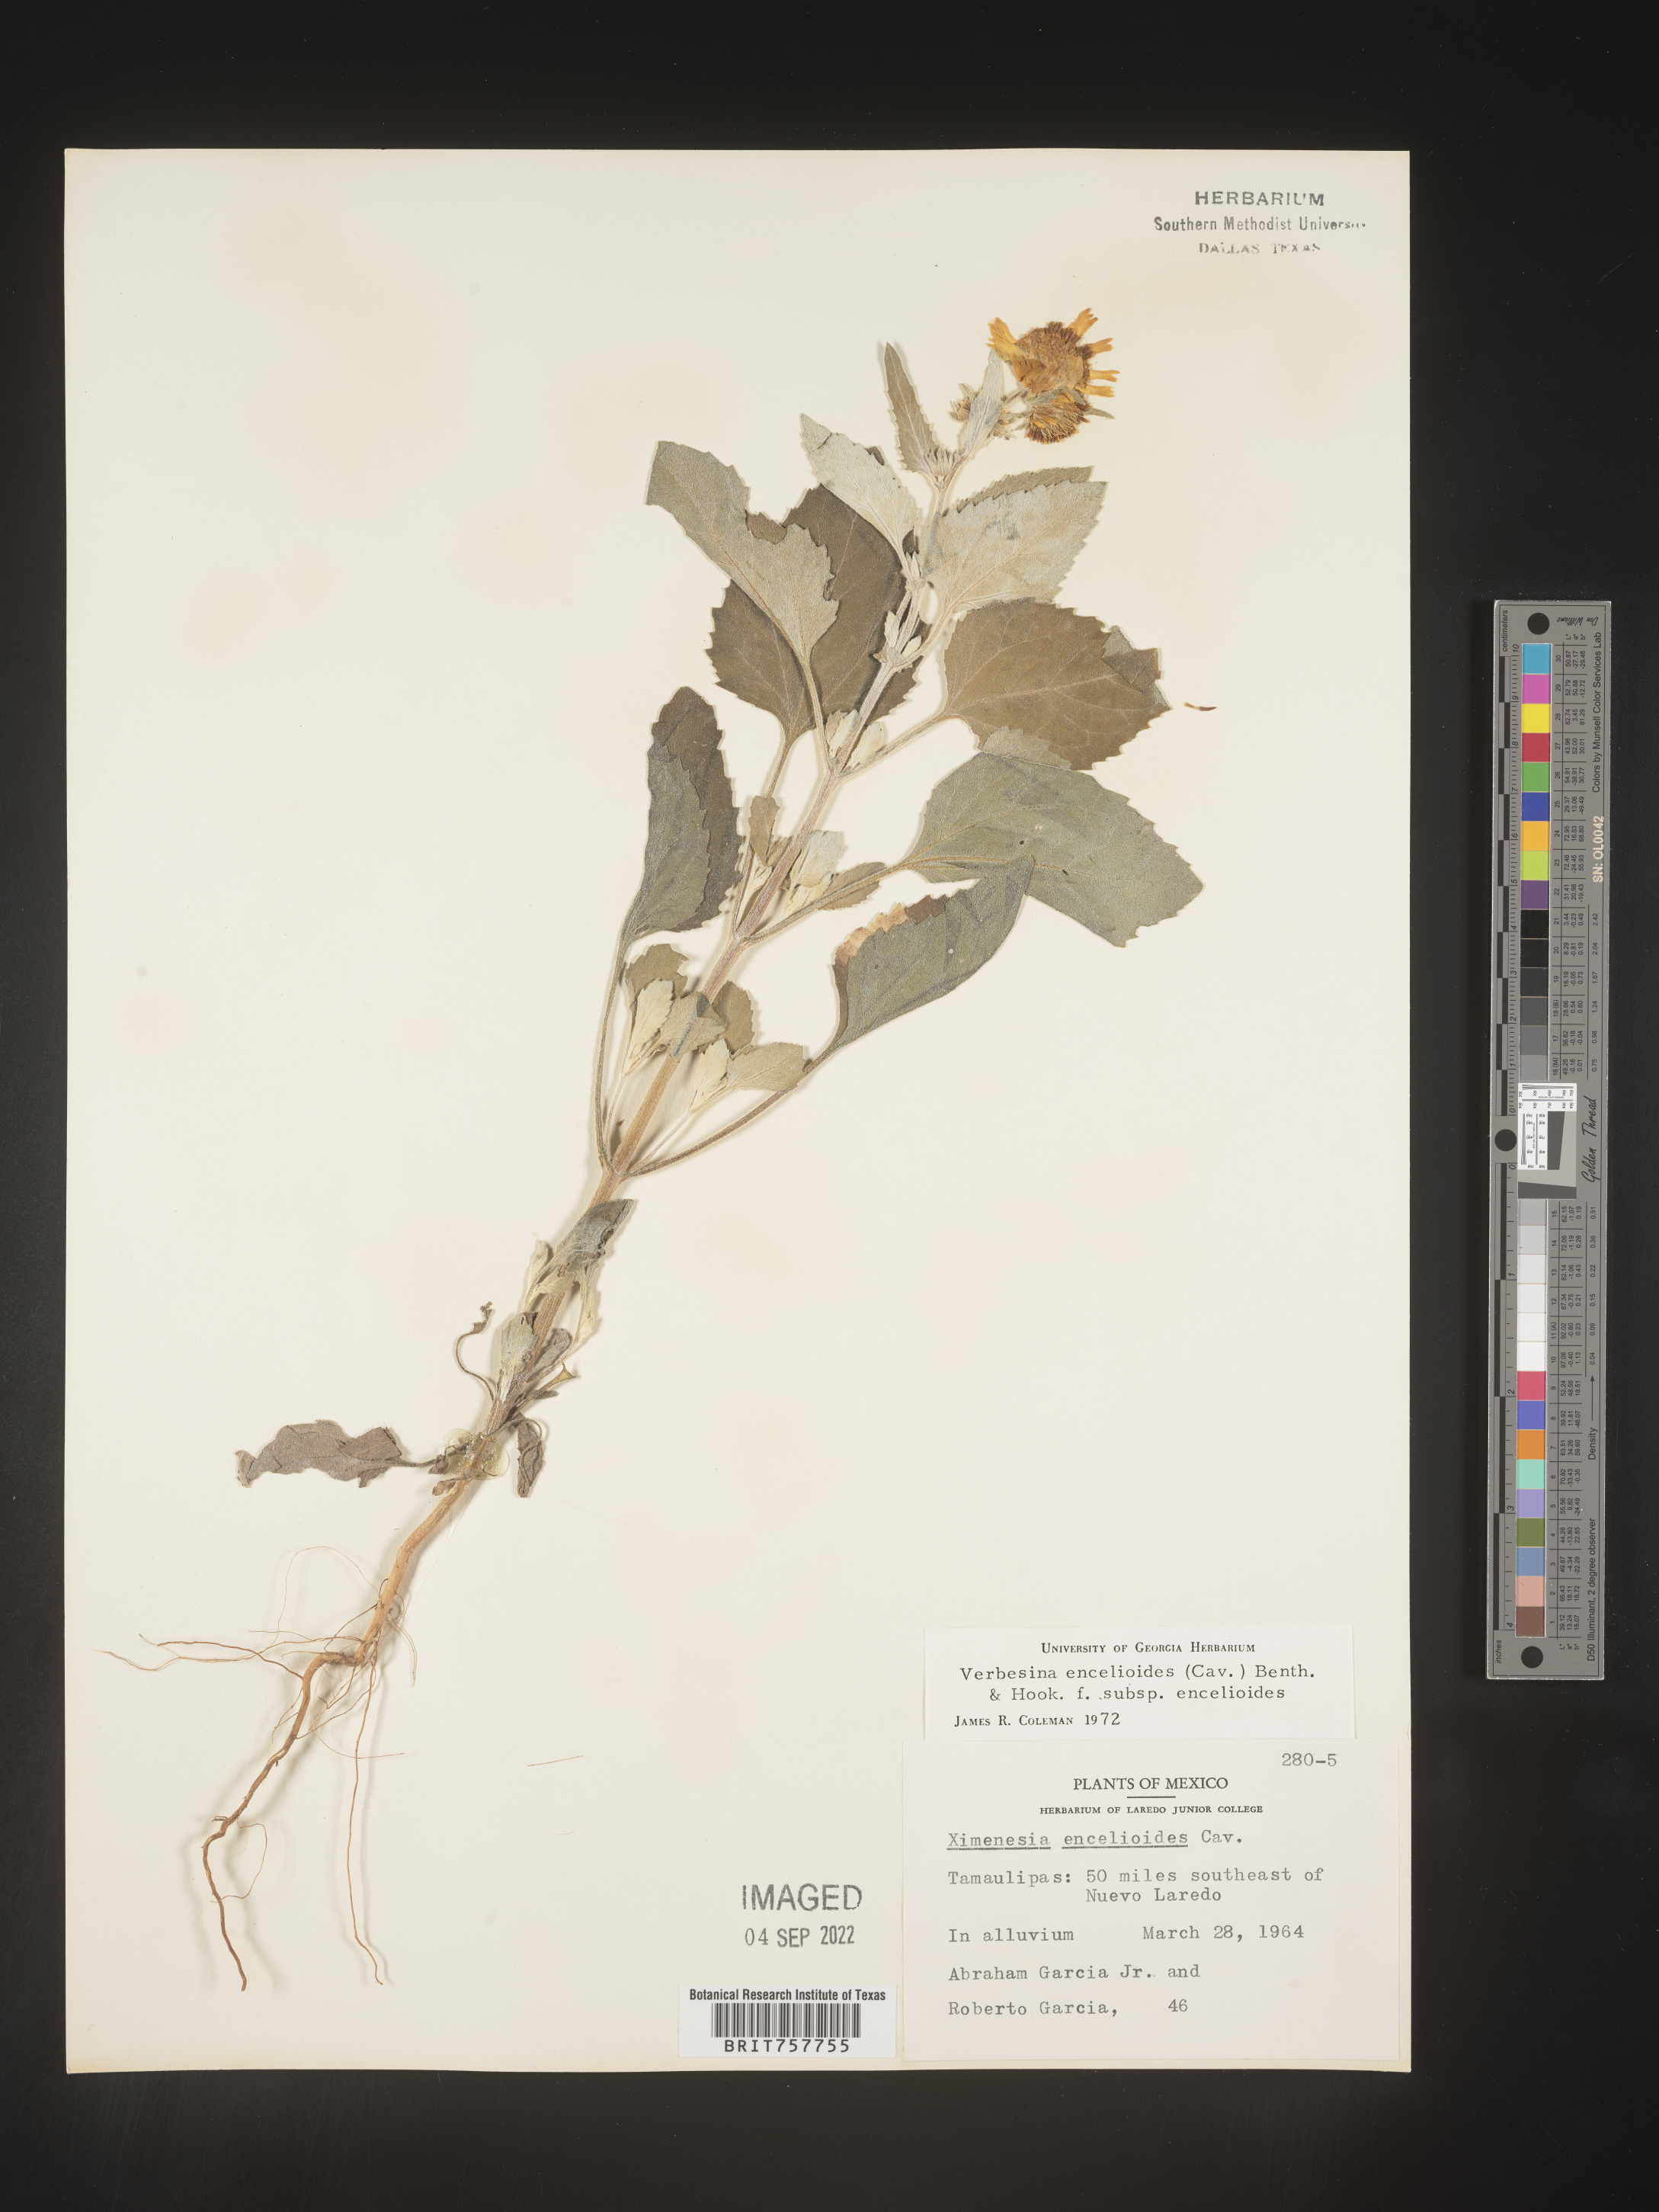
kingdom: Plantae
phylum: Tracheophyta
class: Magnoliopsida
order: Asterales
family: Asteraceae
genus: Verbesina
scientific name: Verbesina
